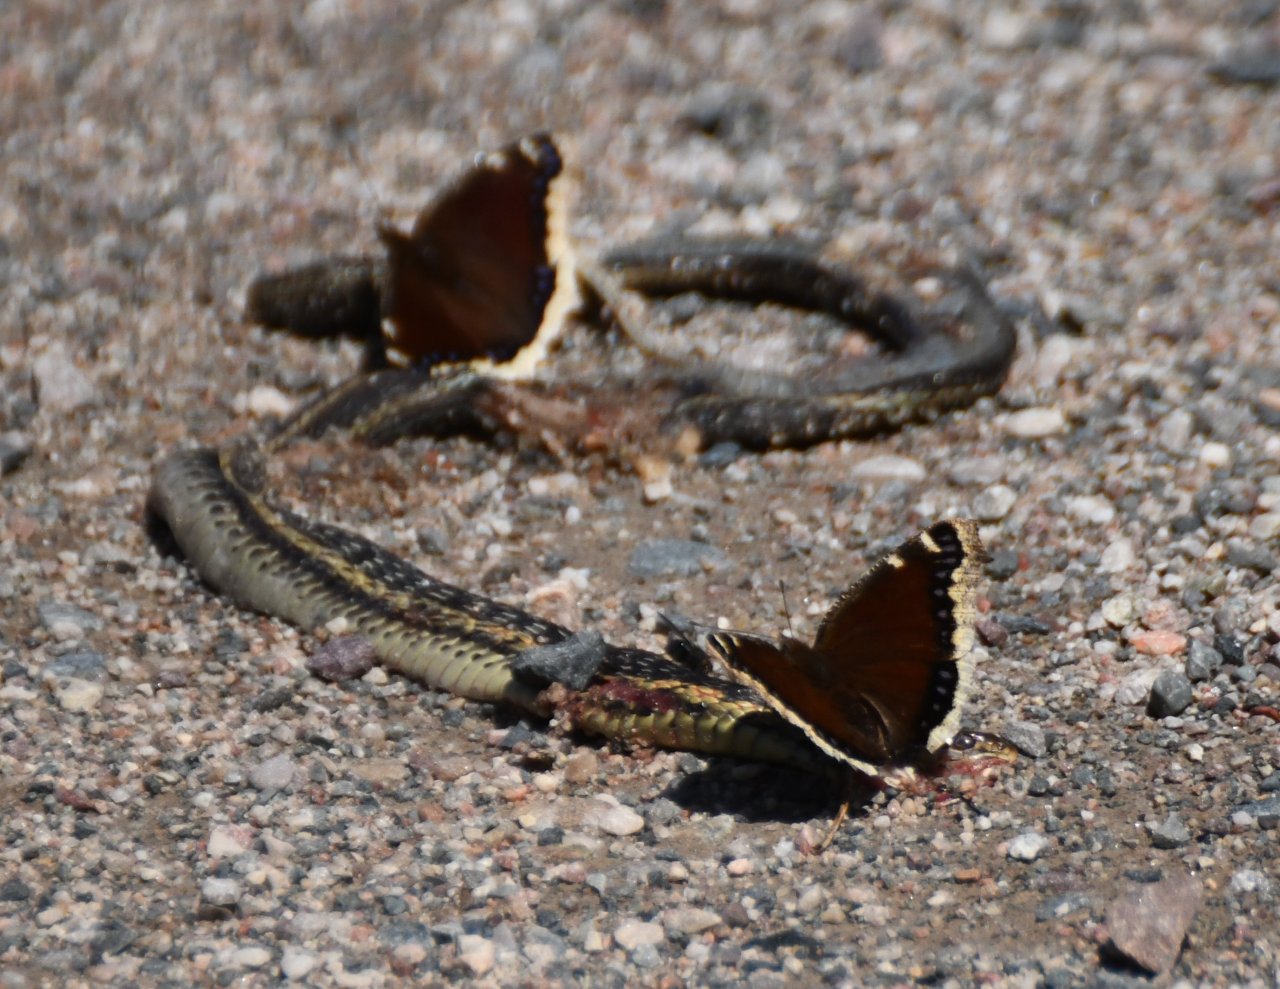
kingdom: Animalia
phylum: Arthropoda
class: Insecta
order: Lepidoptera
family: Nymphalidae
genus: Nymphalis
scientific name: Nymphalis antiopa
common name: Mourning Cloak
